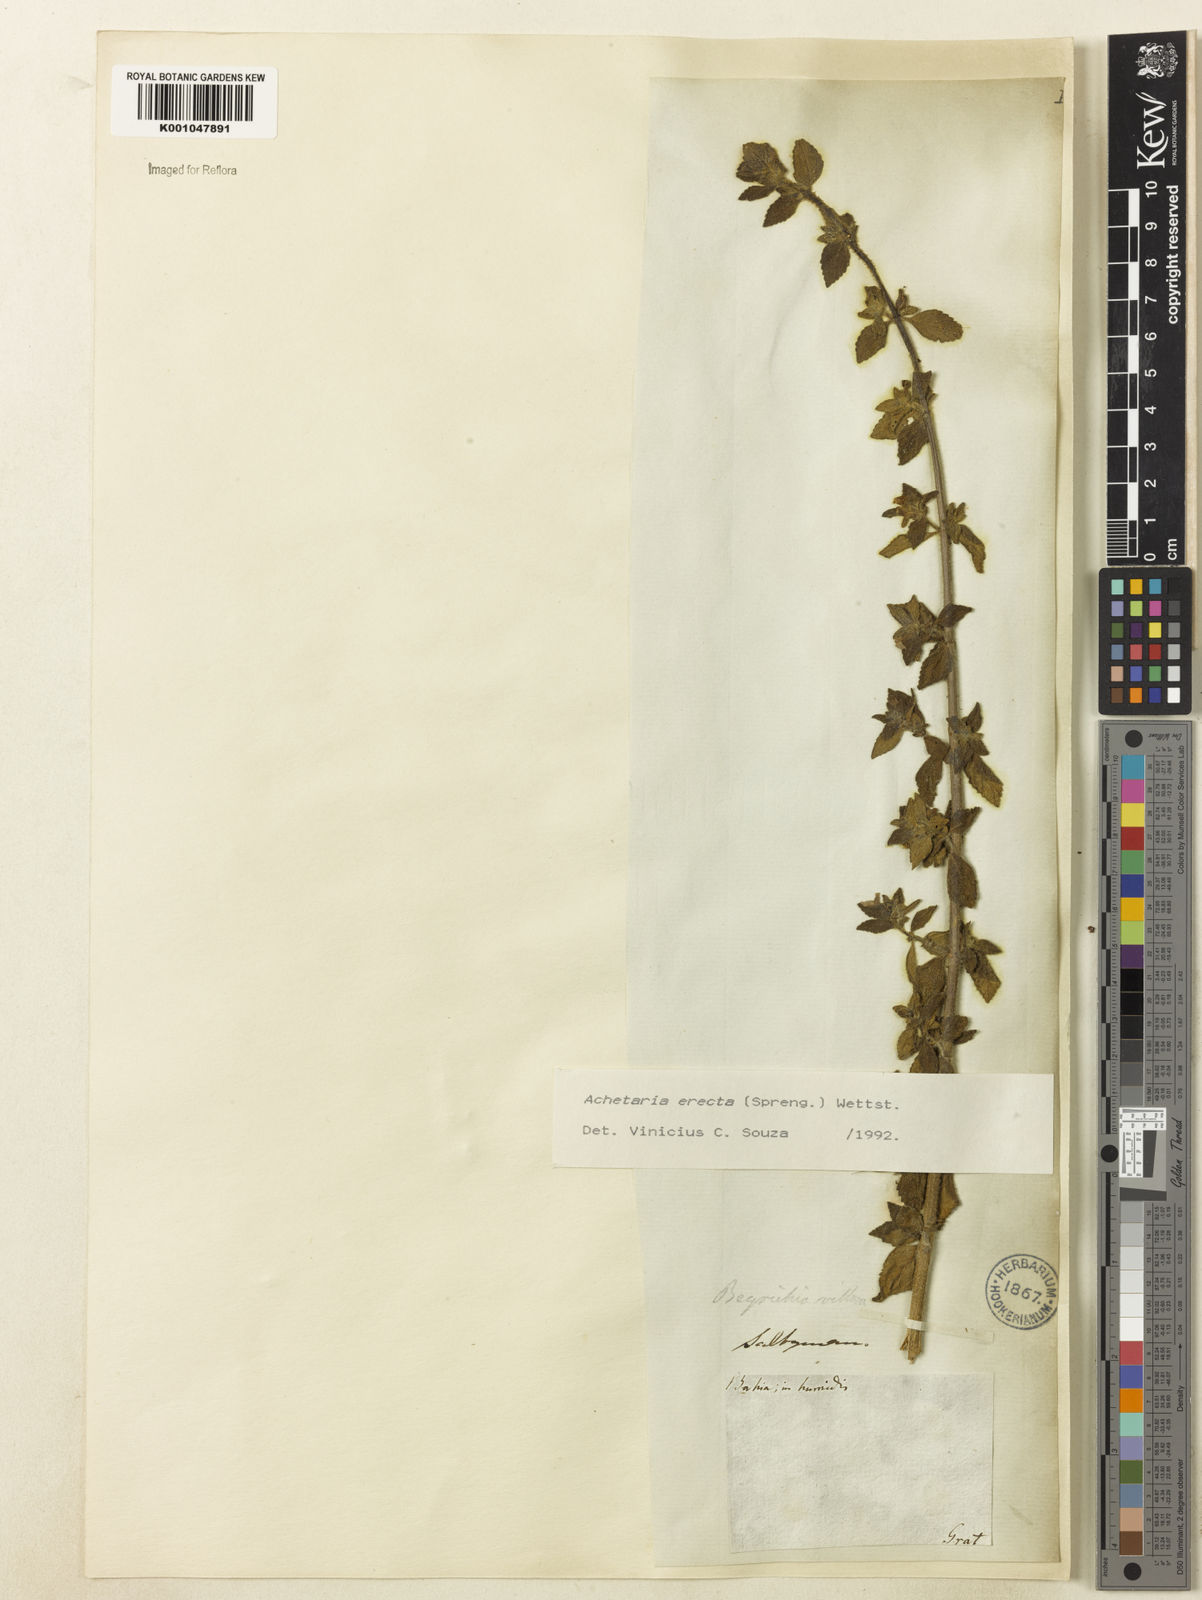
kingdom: Plantae
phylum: Tracheophyta
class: Magnoliopsida
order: Lamiales
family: Plantaginaceae
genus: Matourea
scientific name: Matourea erecta
